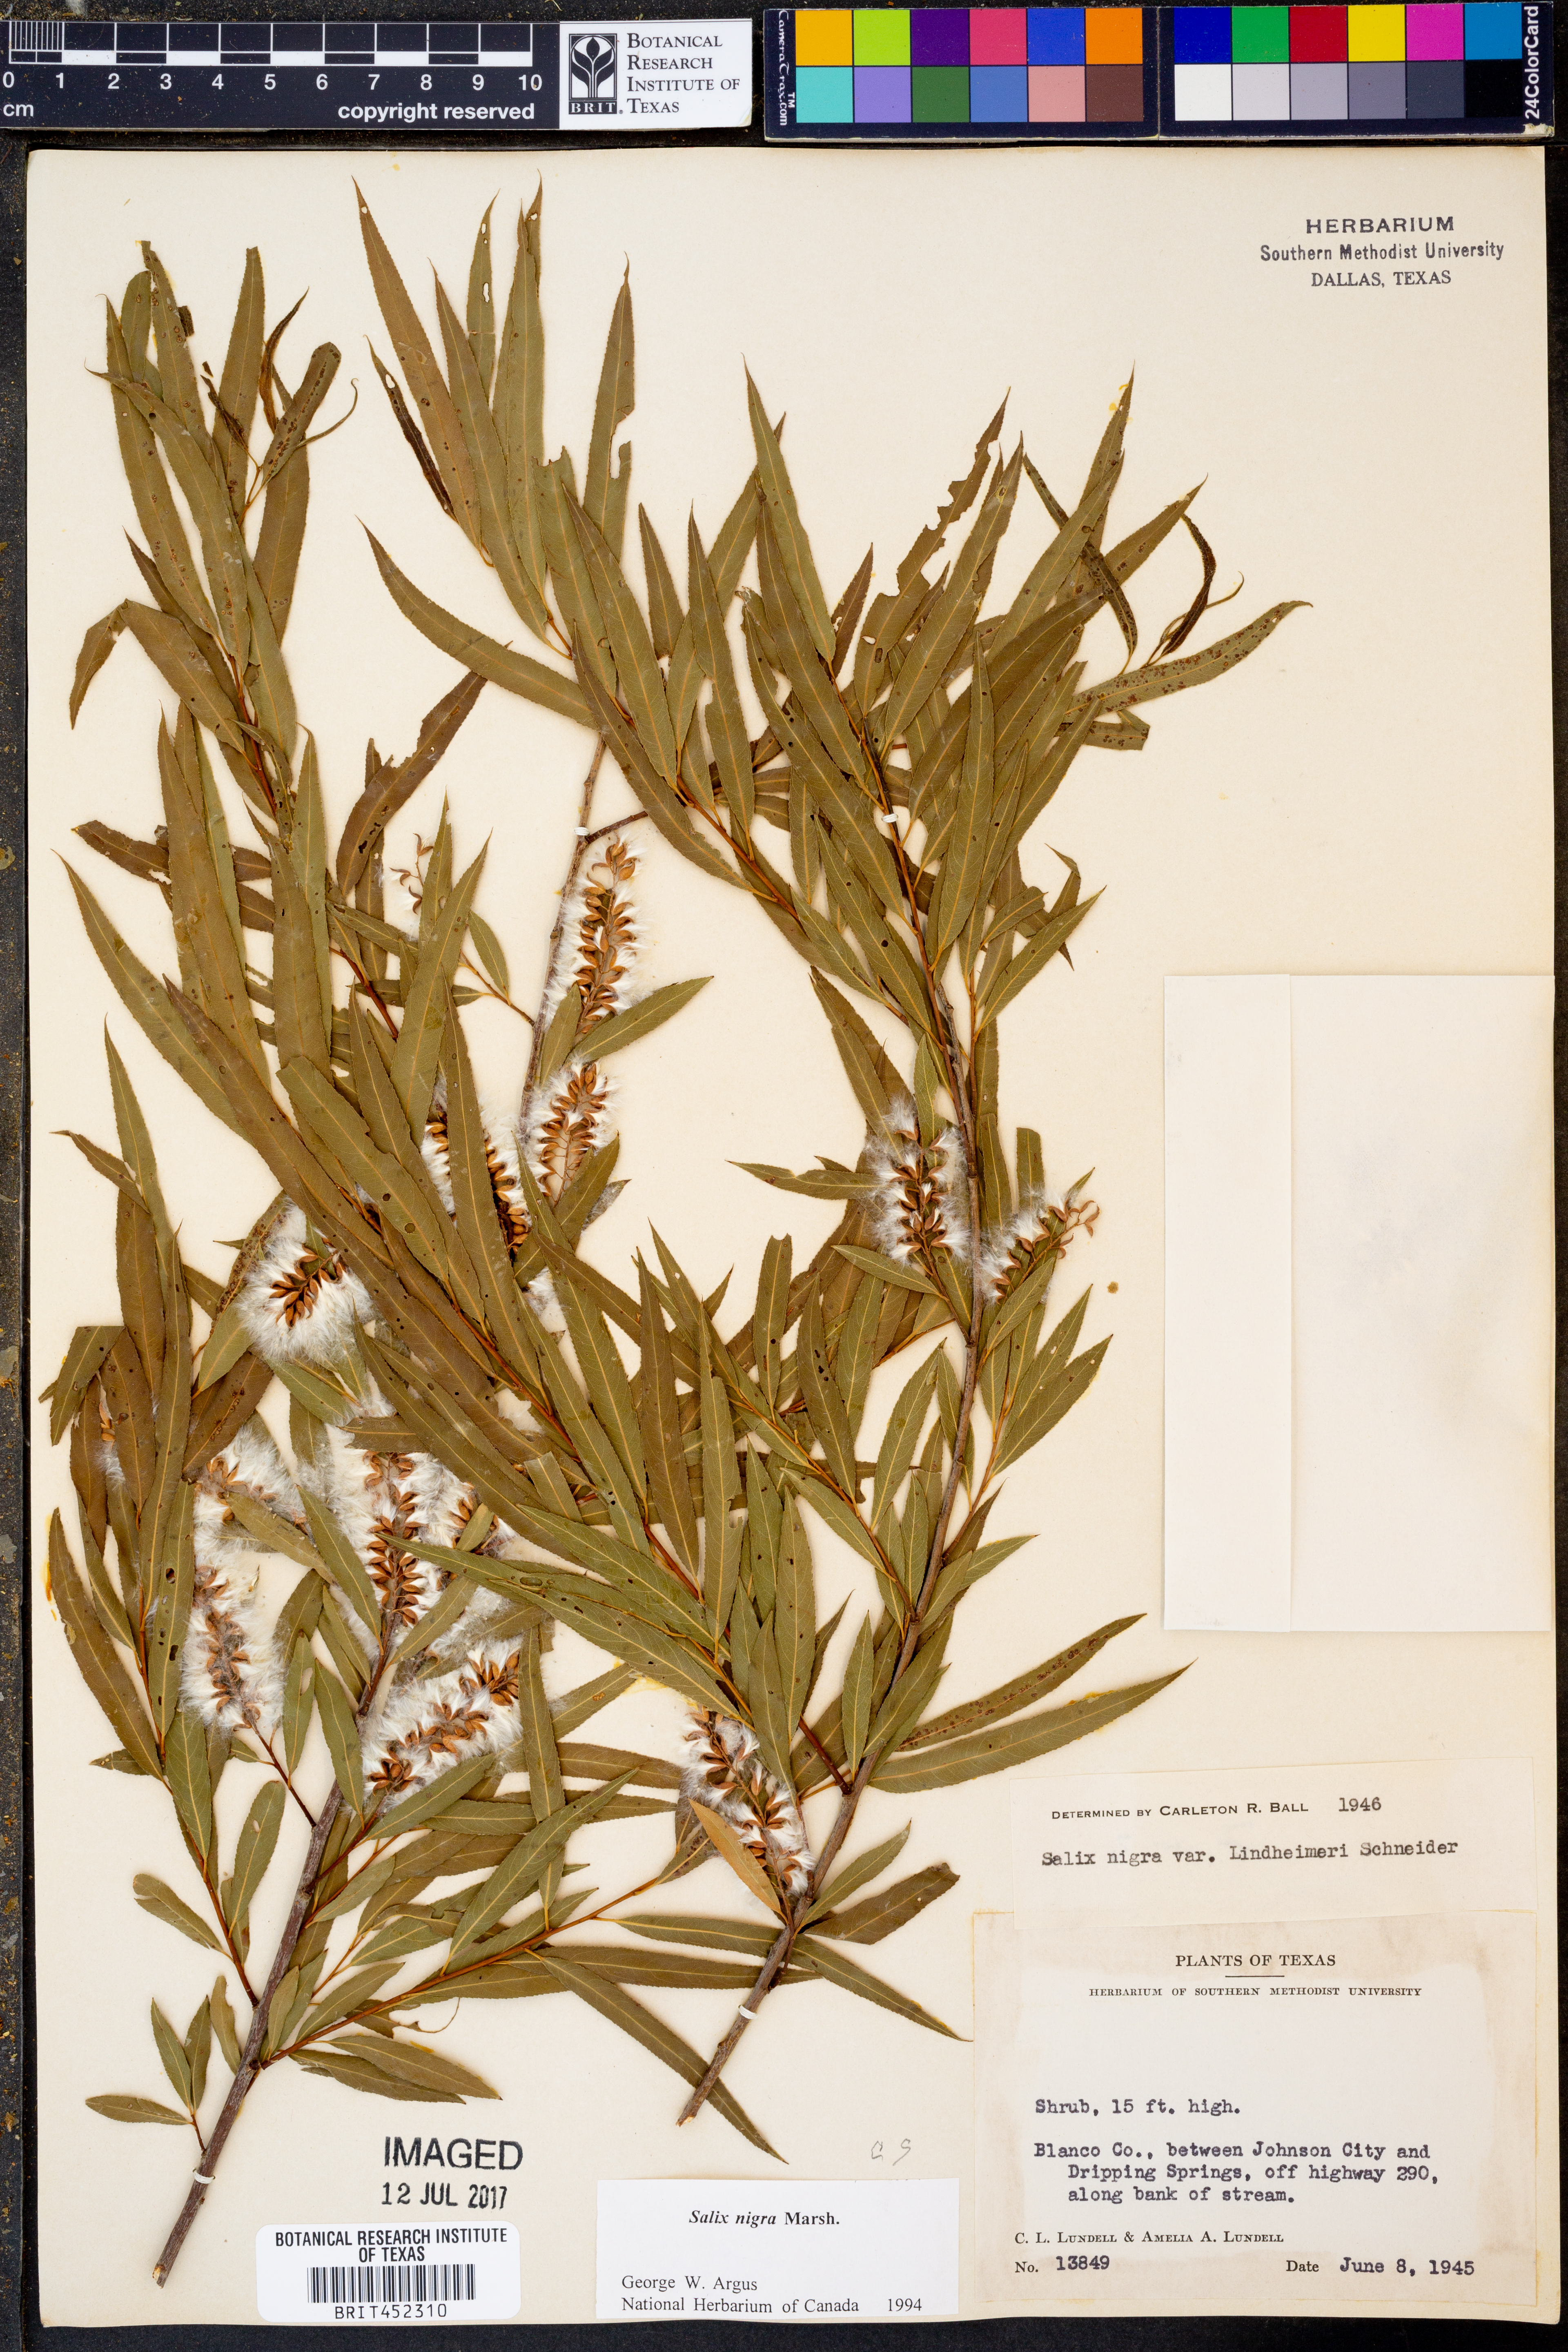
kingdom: Plantae
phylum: Tracheophyta
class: Magnoliopsida
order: Malpighiales
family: Salicaceae
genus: Salix
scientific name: Salix nigra
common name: Black willow
